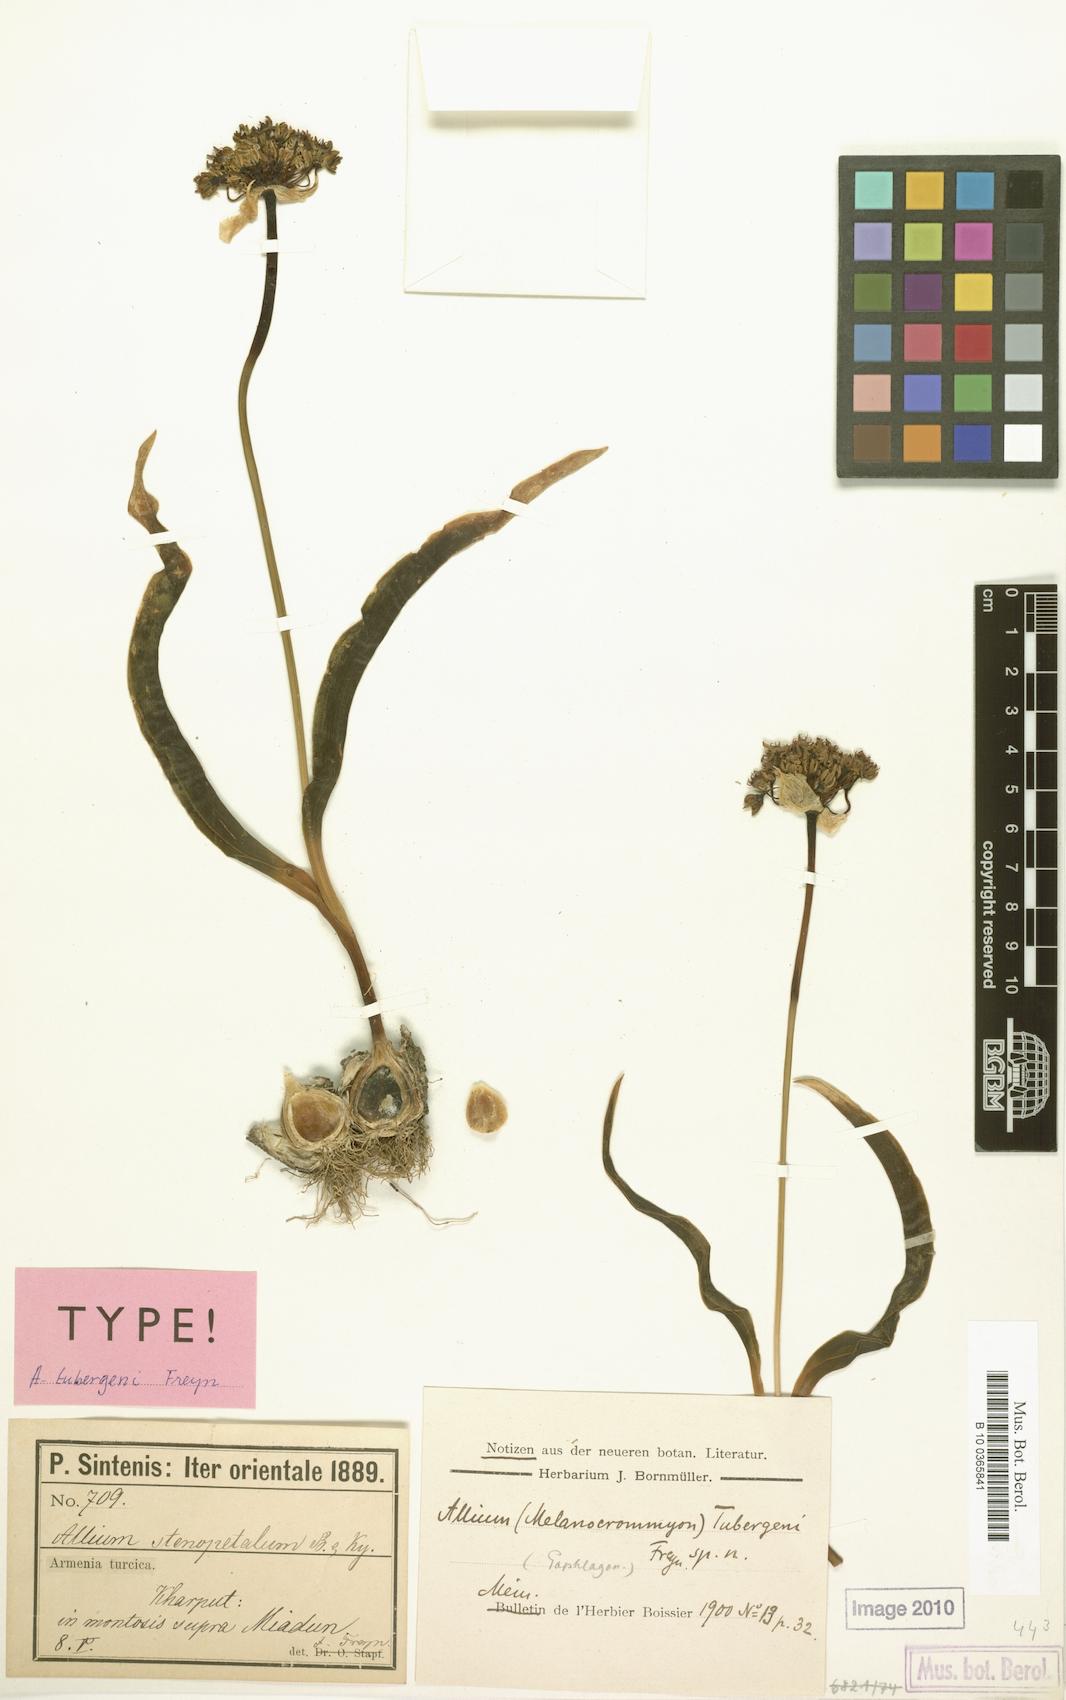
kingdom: Plantae
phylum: Tracheophyta
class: Liliopsida
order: Asparagales
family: Amaryllidaceae
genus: Allium
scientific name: Allium tubergenii
